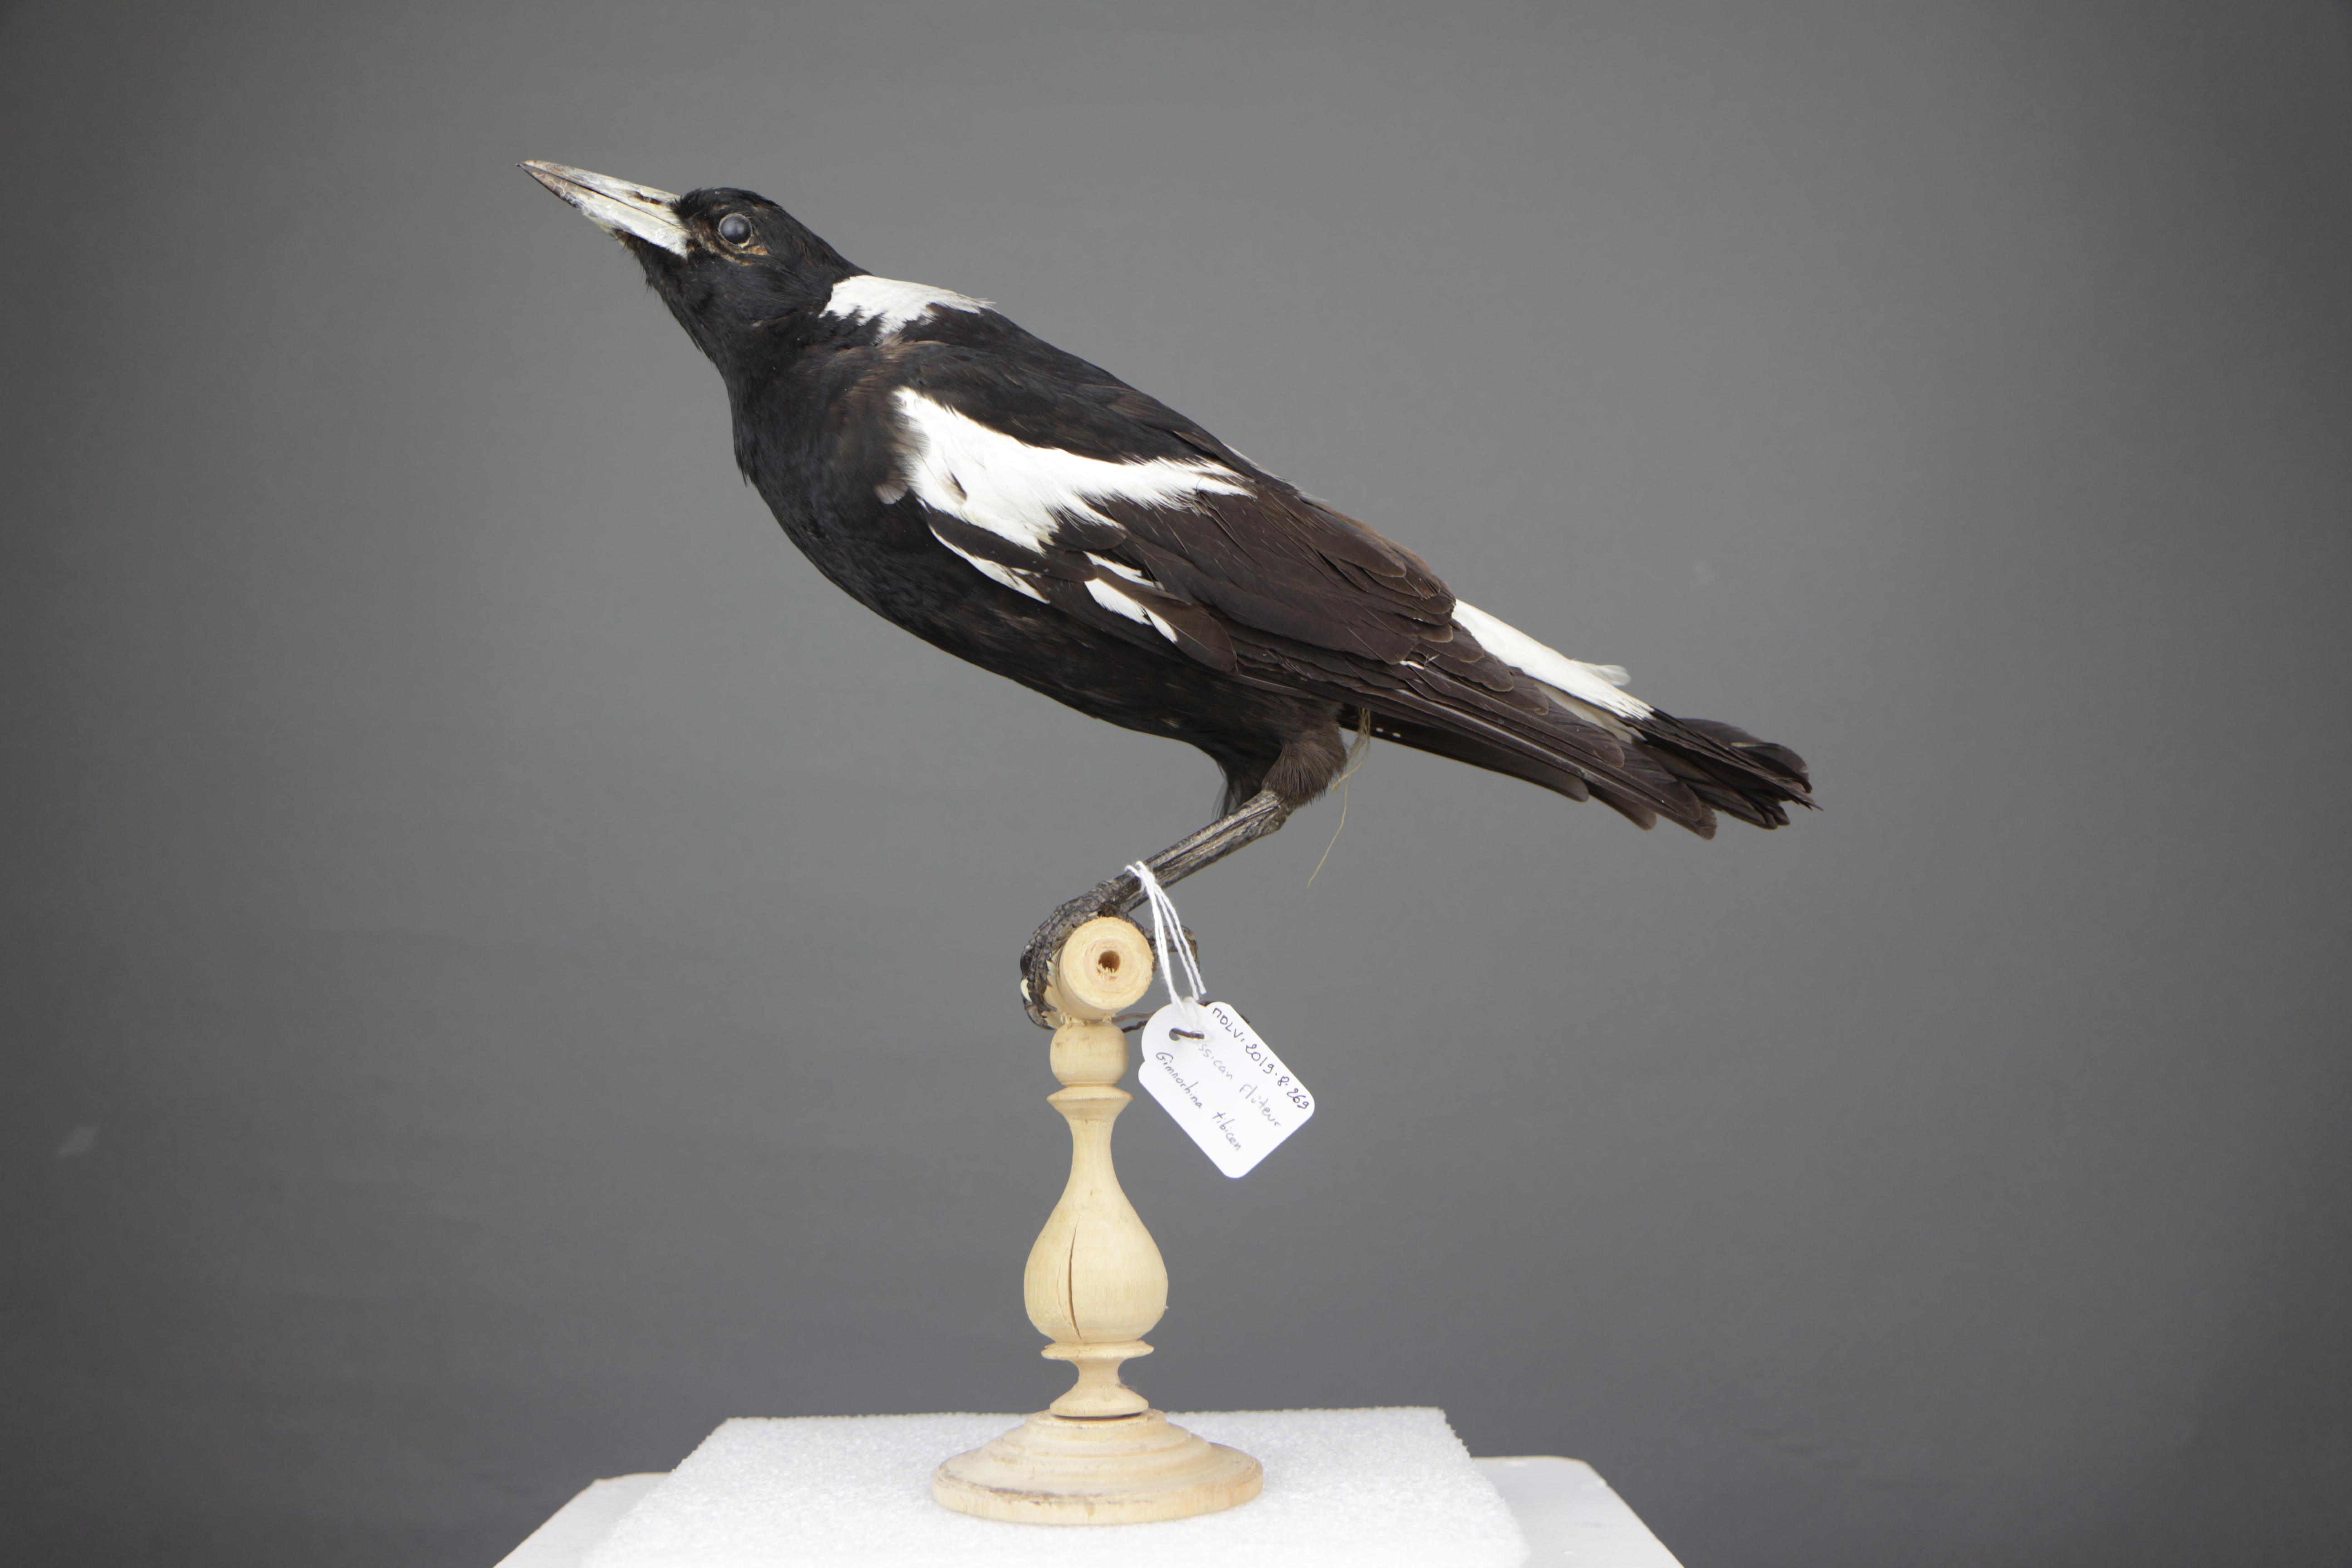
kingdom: Animalia
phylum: Chordata
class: Aves
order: Passeriformes
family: Cracticidae
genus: Gymnorhina
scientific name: Gymnorhina tibicen
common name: Australian magpie
